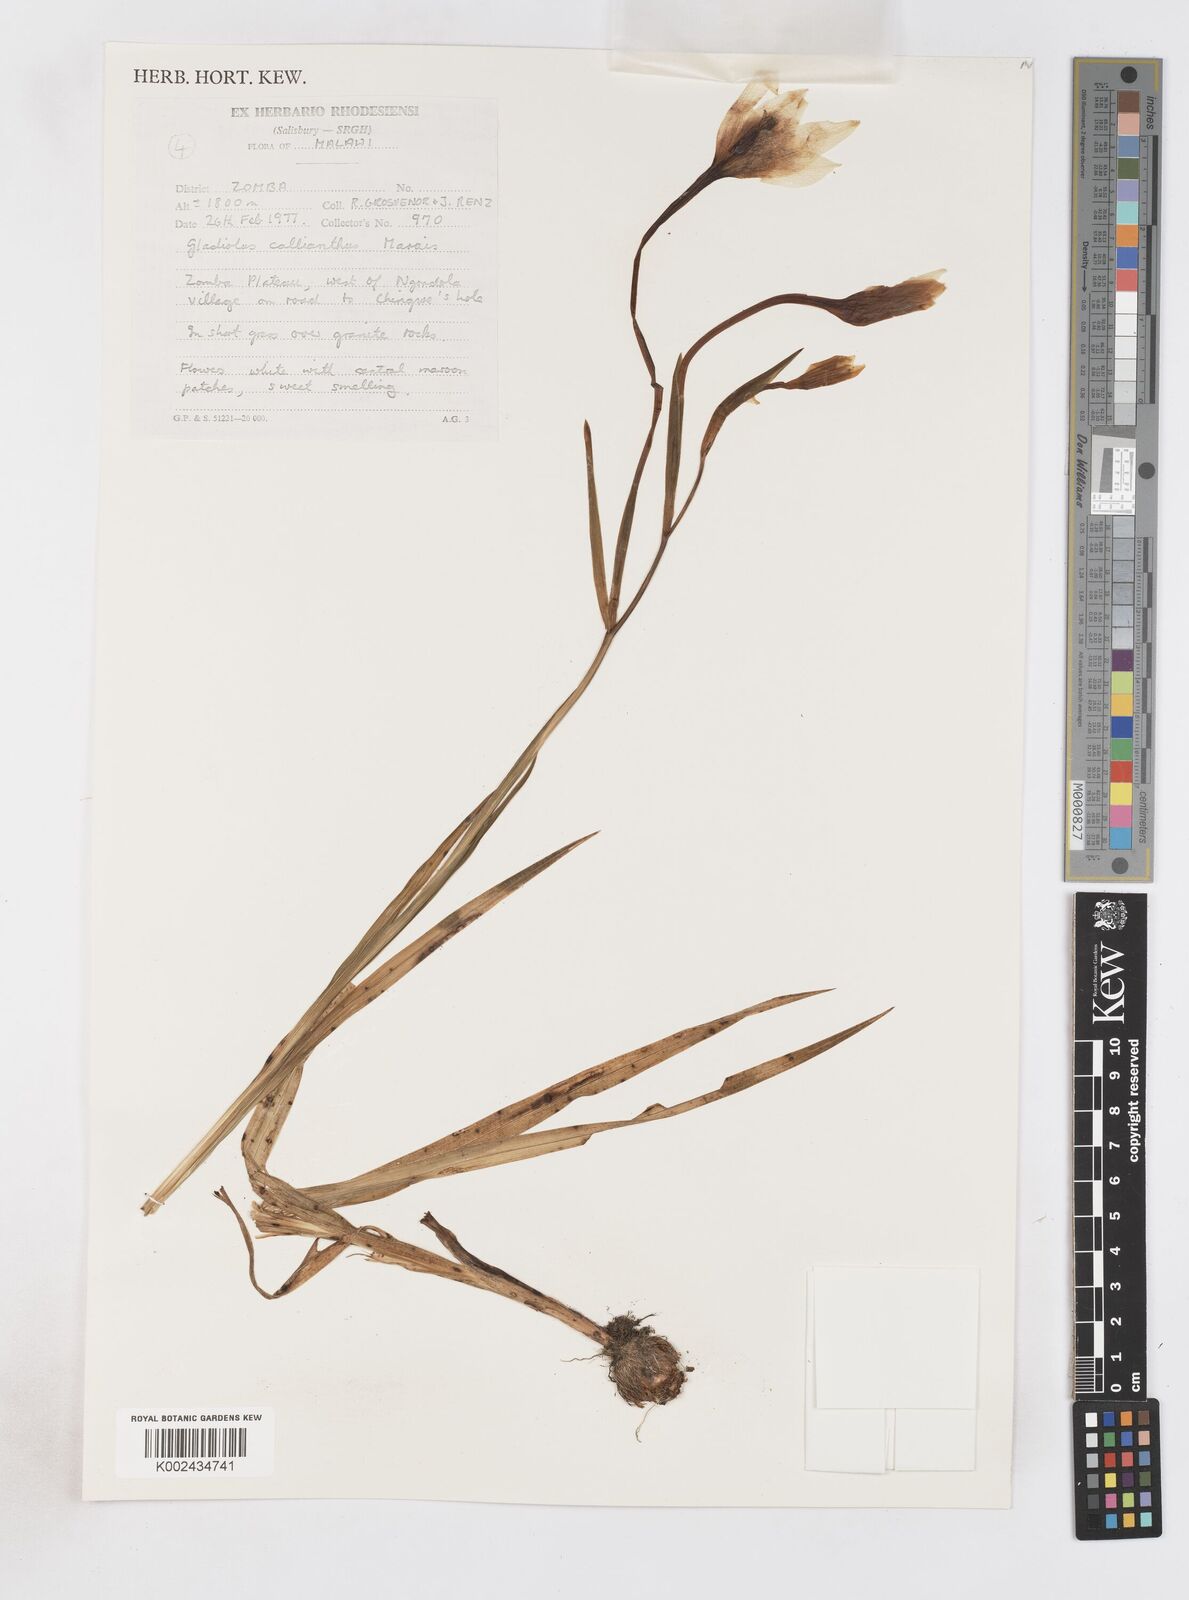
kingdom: Plantae
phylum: Tracheophyta
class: Liliopsida
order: Asparagales
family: Iridaceae
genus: Gladiolus
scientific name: Gladiolus murielae
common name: Acidanthera
